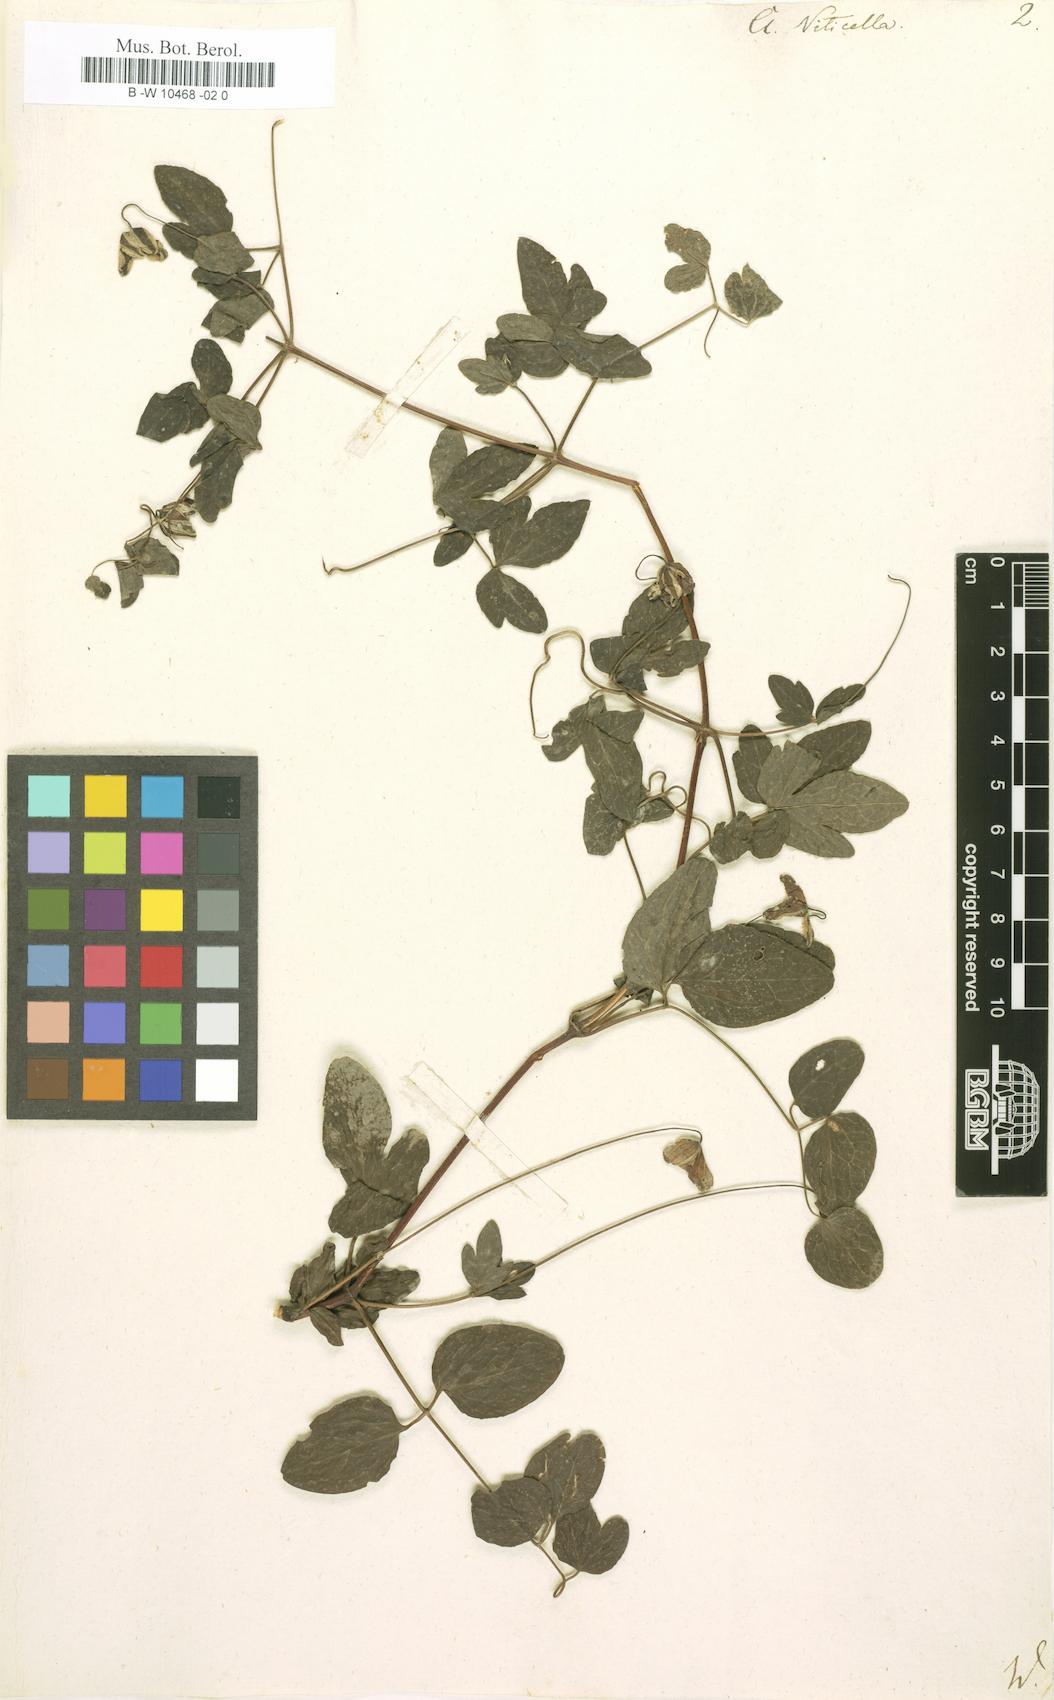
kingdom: Plantae
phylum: Tracheophyta
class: Magnoliopsida
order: Ranunculales
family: Ranunculaceae
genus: Clematis
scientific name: Clematis viticella
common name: Purple clematis
